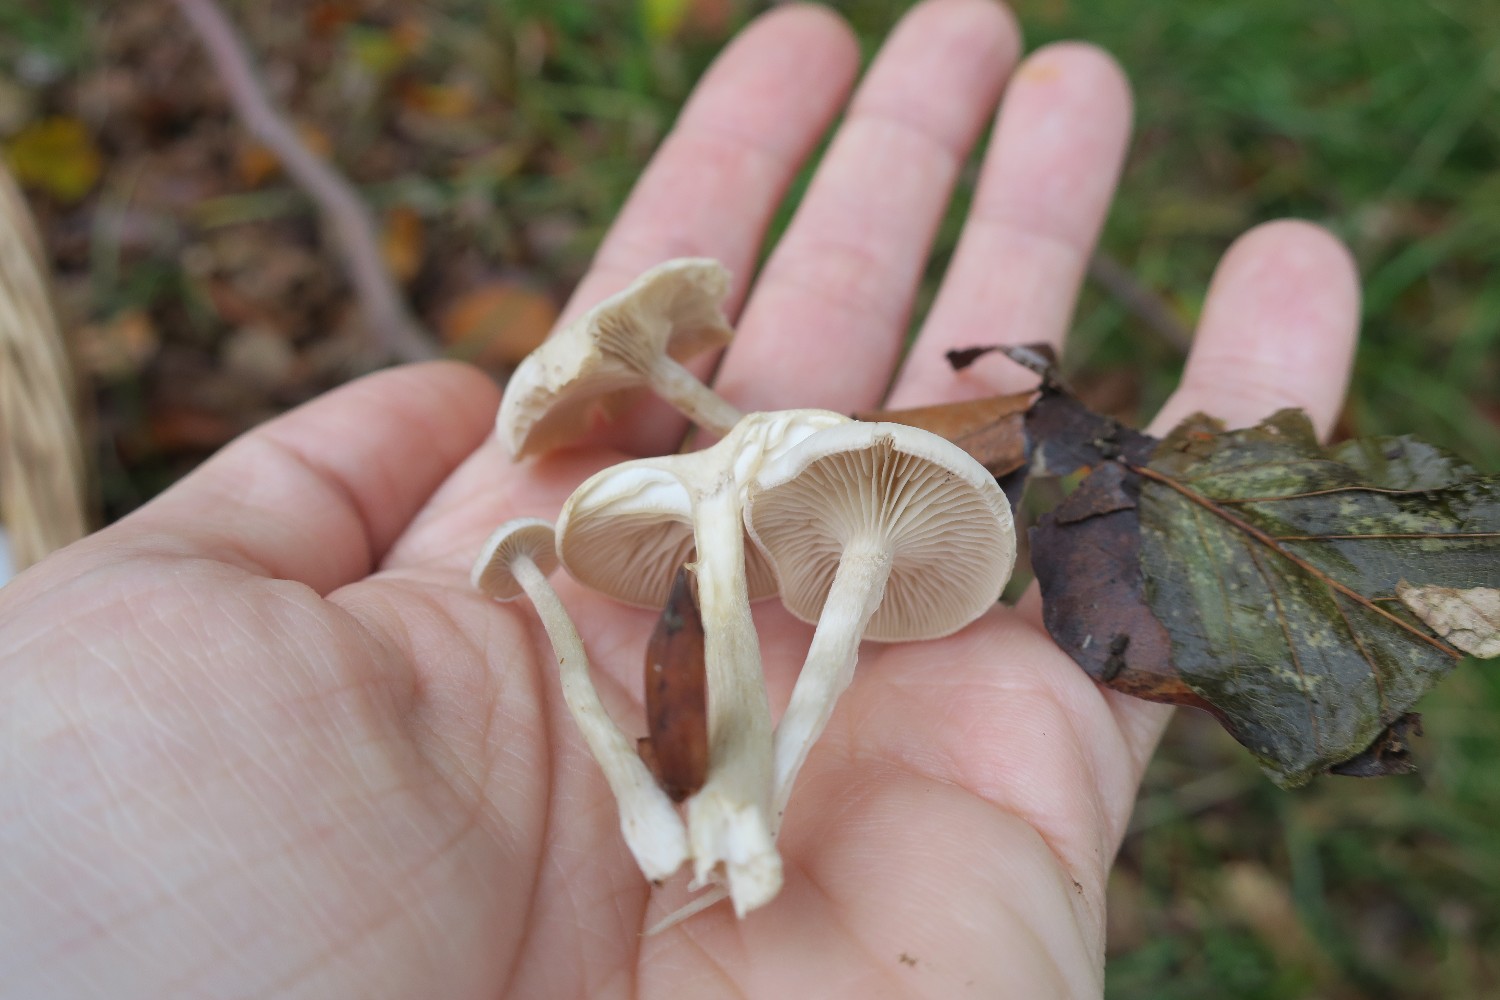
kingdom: Fungi
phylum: Basidiomycota
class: Agaricomycetes
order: Agaricales
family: Tricholomataceae
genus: Clitocybe
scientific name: Clitocybe fragrans
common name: vellugtende tragthat
